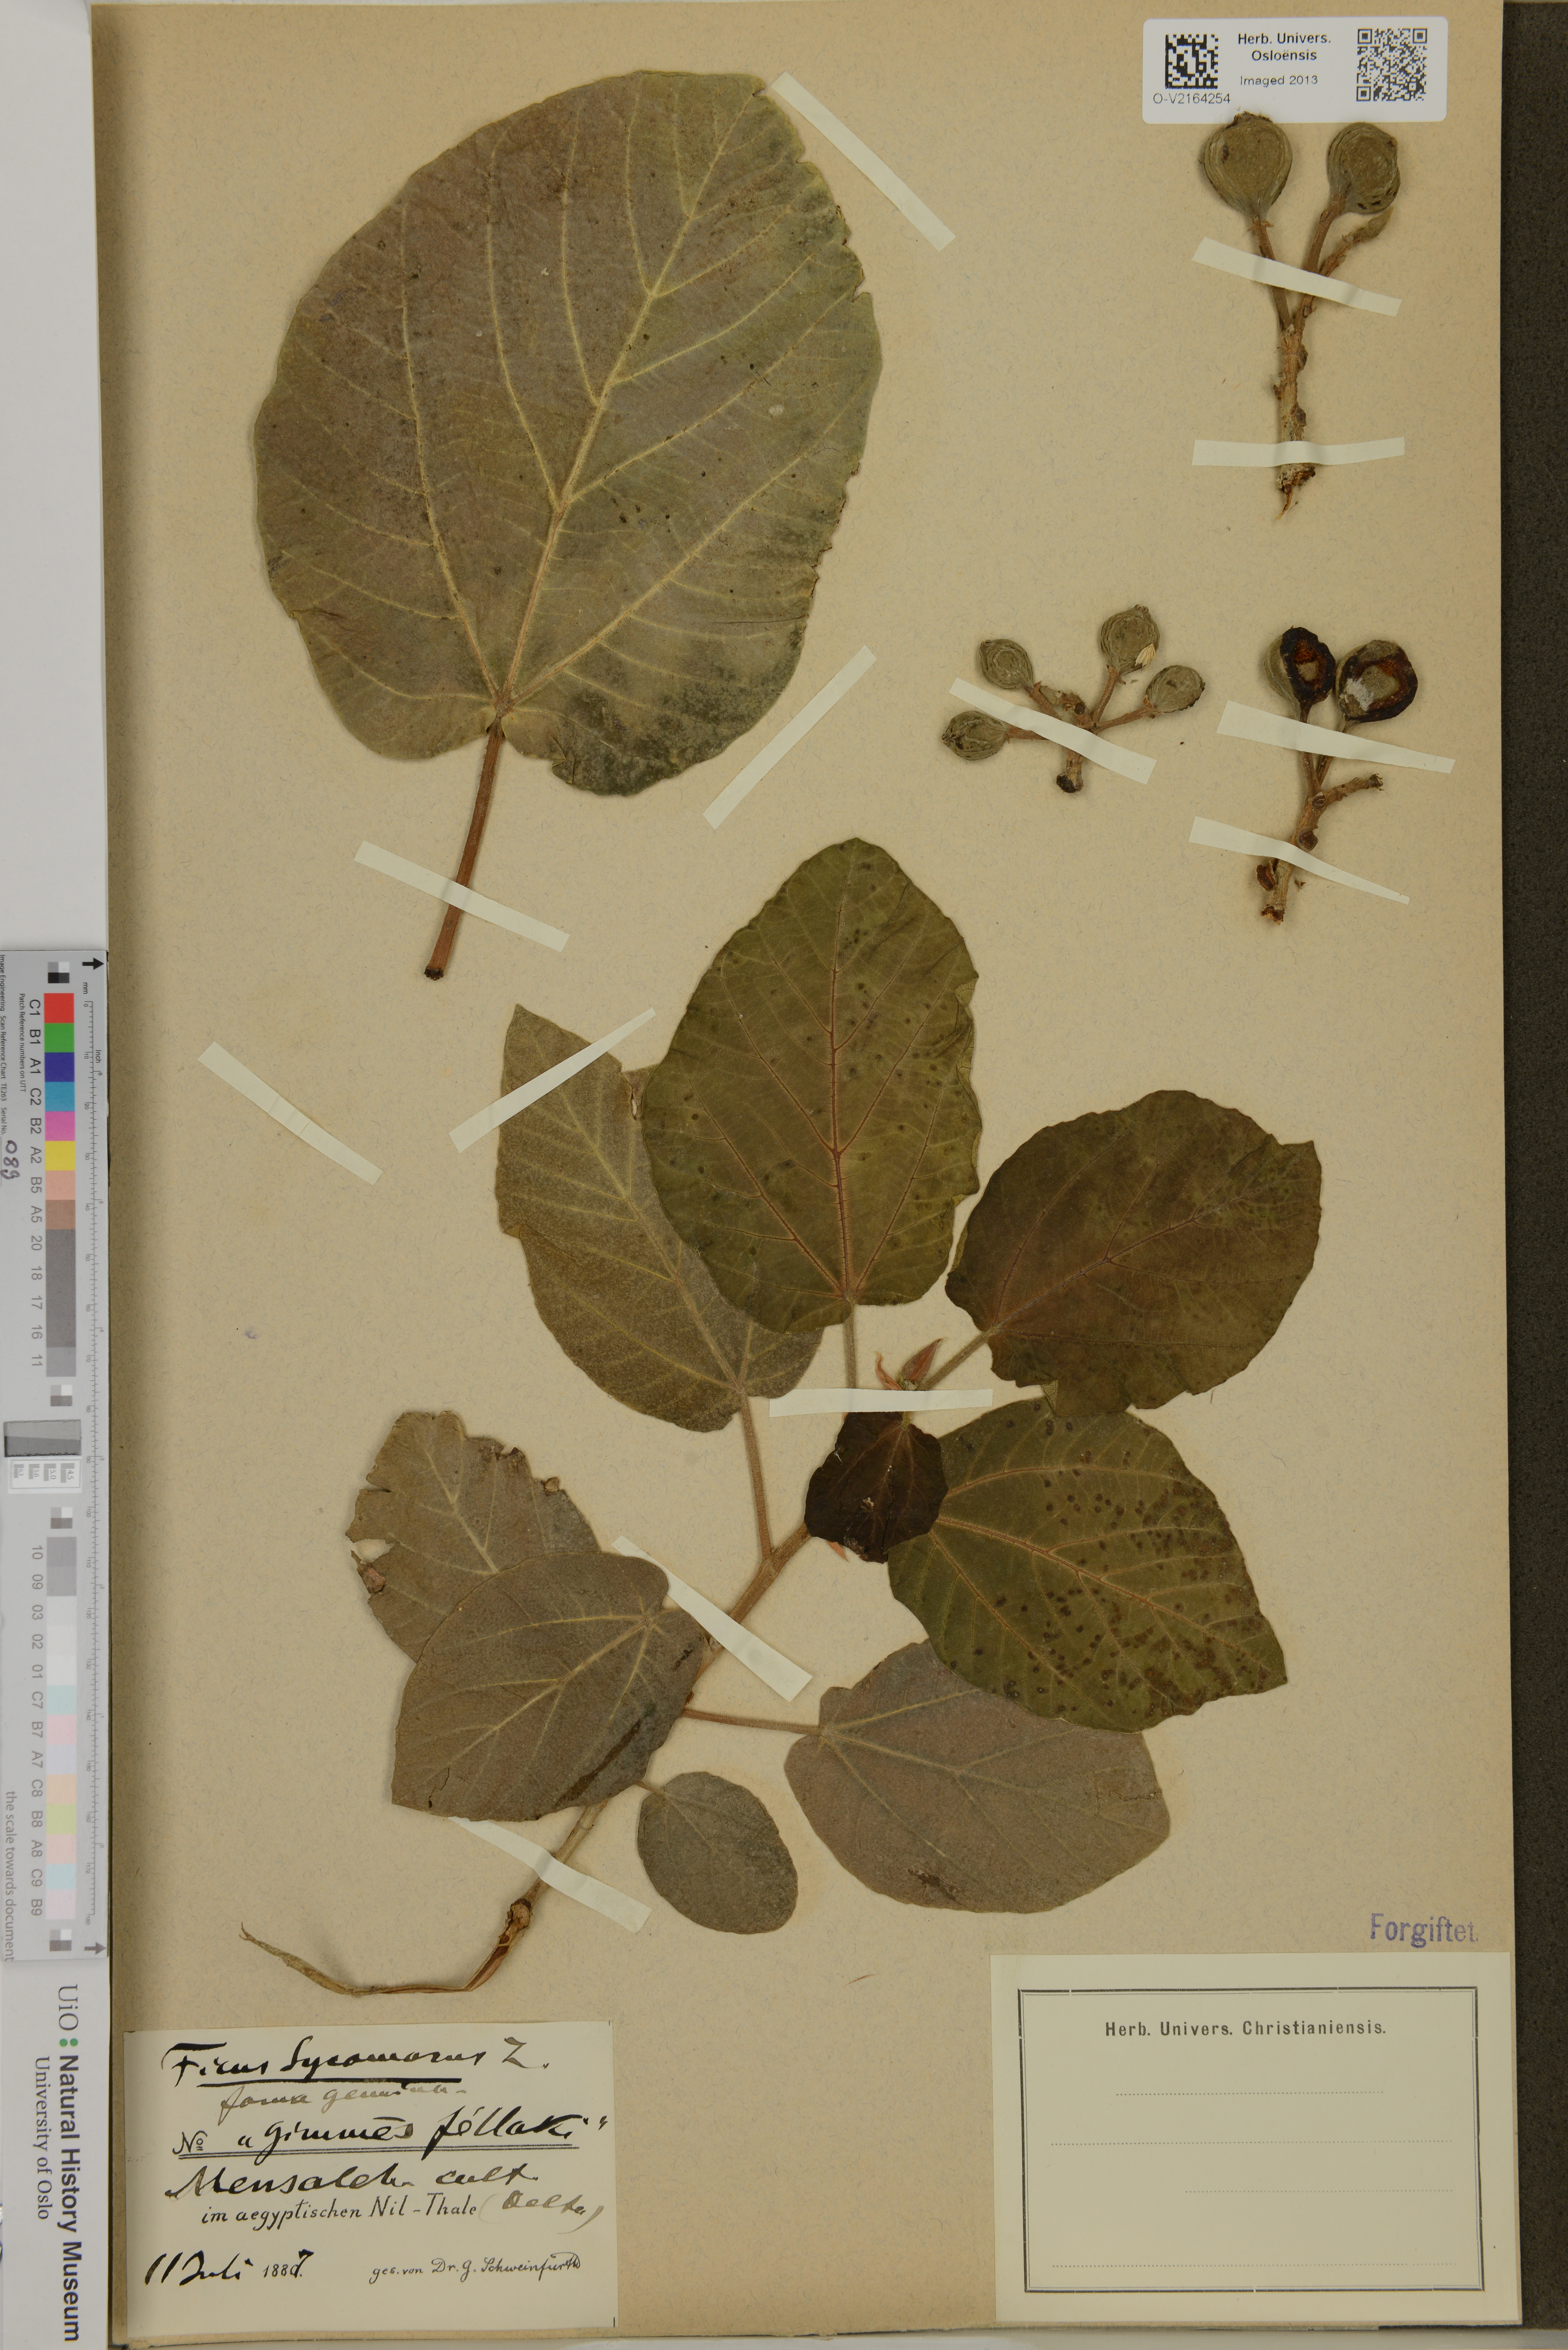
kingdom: Plantae
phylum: Tracheophyta
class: Magnoliopsida
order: Rosales
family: Moraceae
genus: Ficus
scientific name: Ficus sycomorus
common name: Sycomore
